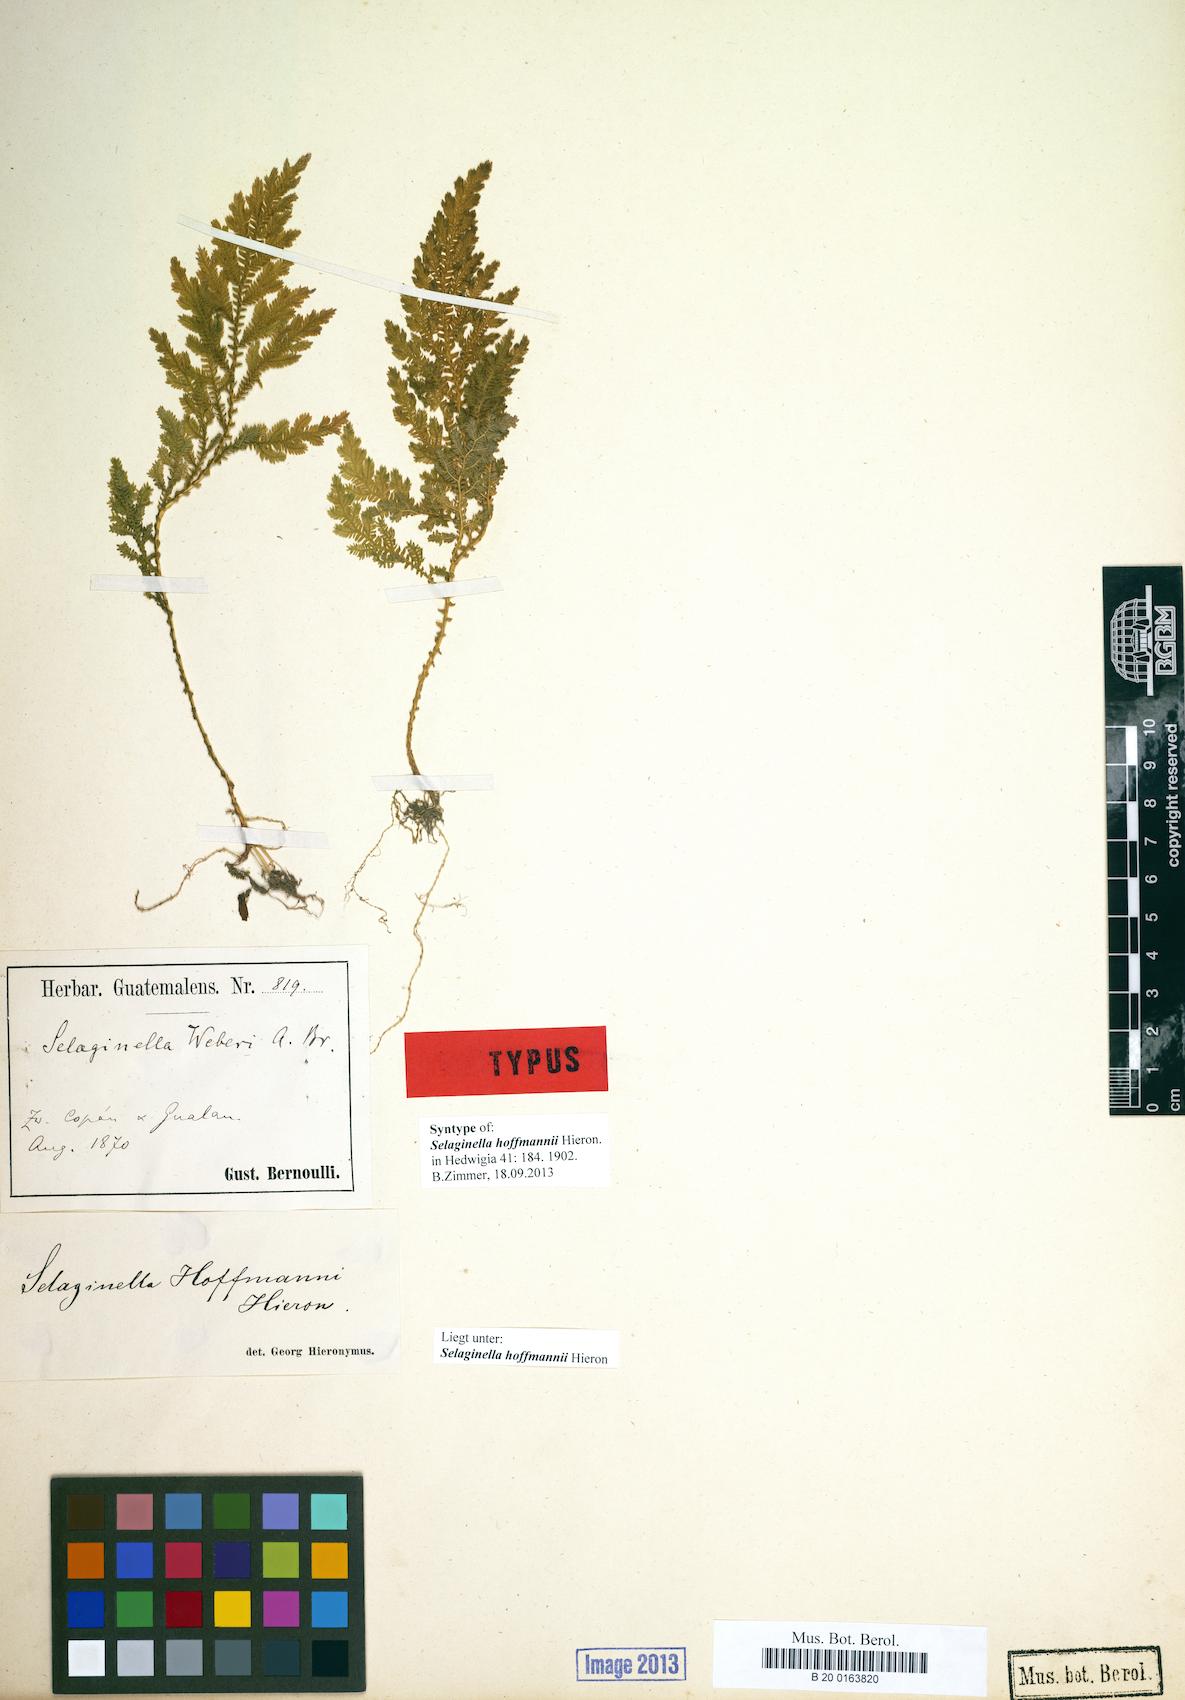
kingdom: Plantae
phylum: Tracheophyta
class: Lycopodiopsida
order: Selaginellales
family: Selaginellaceae
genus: Selaginella
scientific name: Selaginella hoffmannii
